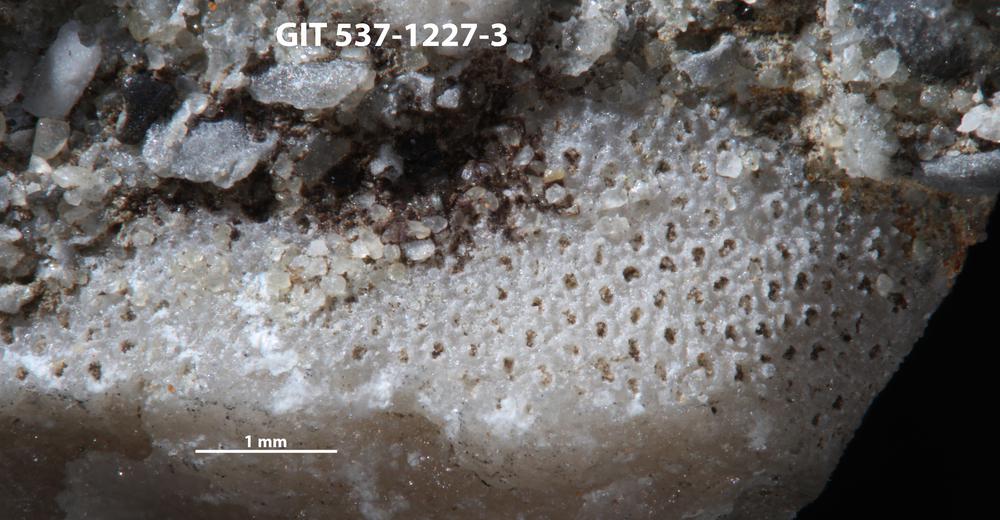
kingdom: Animalia
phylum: Bryozoa
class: Stenolaemata
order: Trepostomatida
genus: Pakripora
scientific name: Pakripora cavernosa
